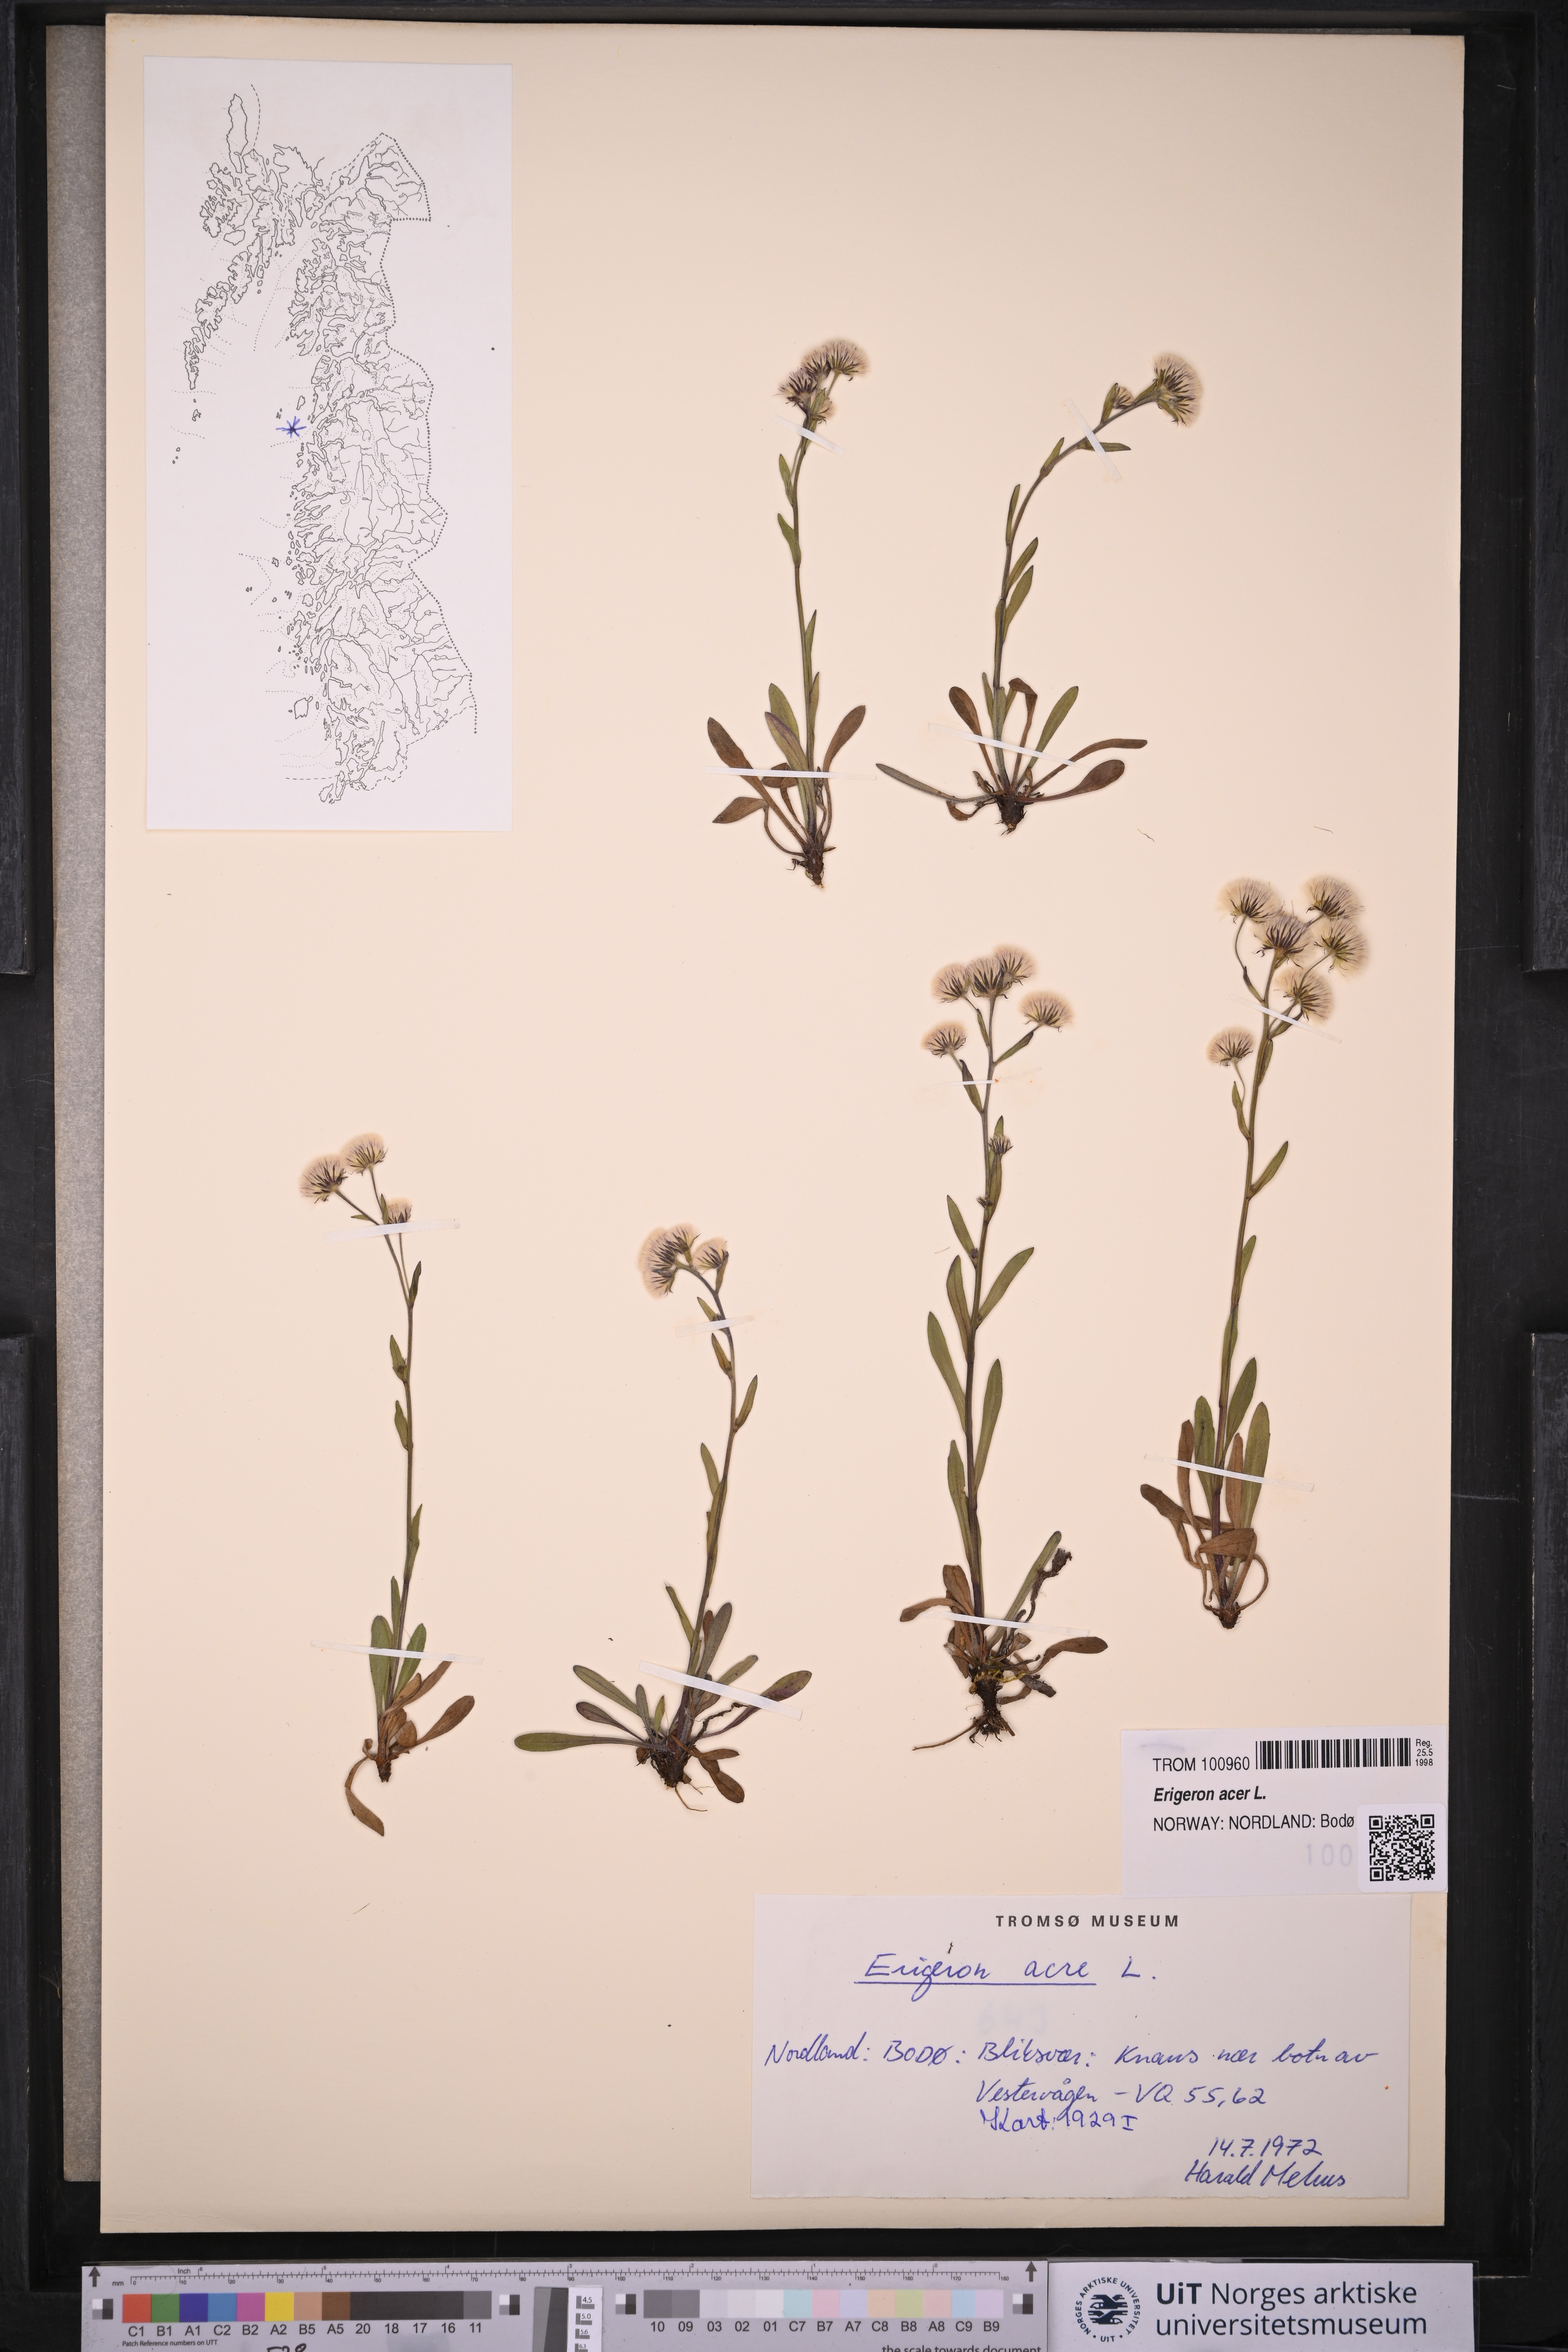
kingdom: Plantae
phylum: Tracheophyta
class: Magnoliopsida
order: Asterales
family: Asteraceae
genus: Erigeron
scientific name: Erigeron acris
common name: Blue fleabane
